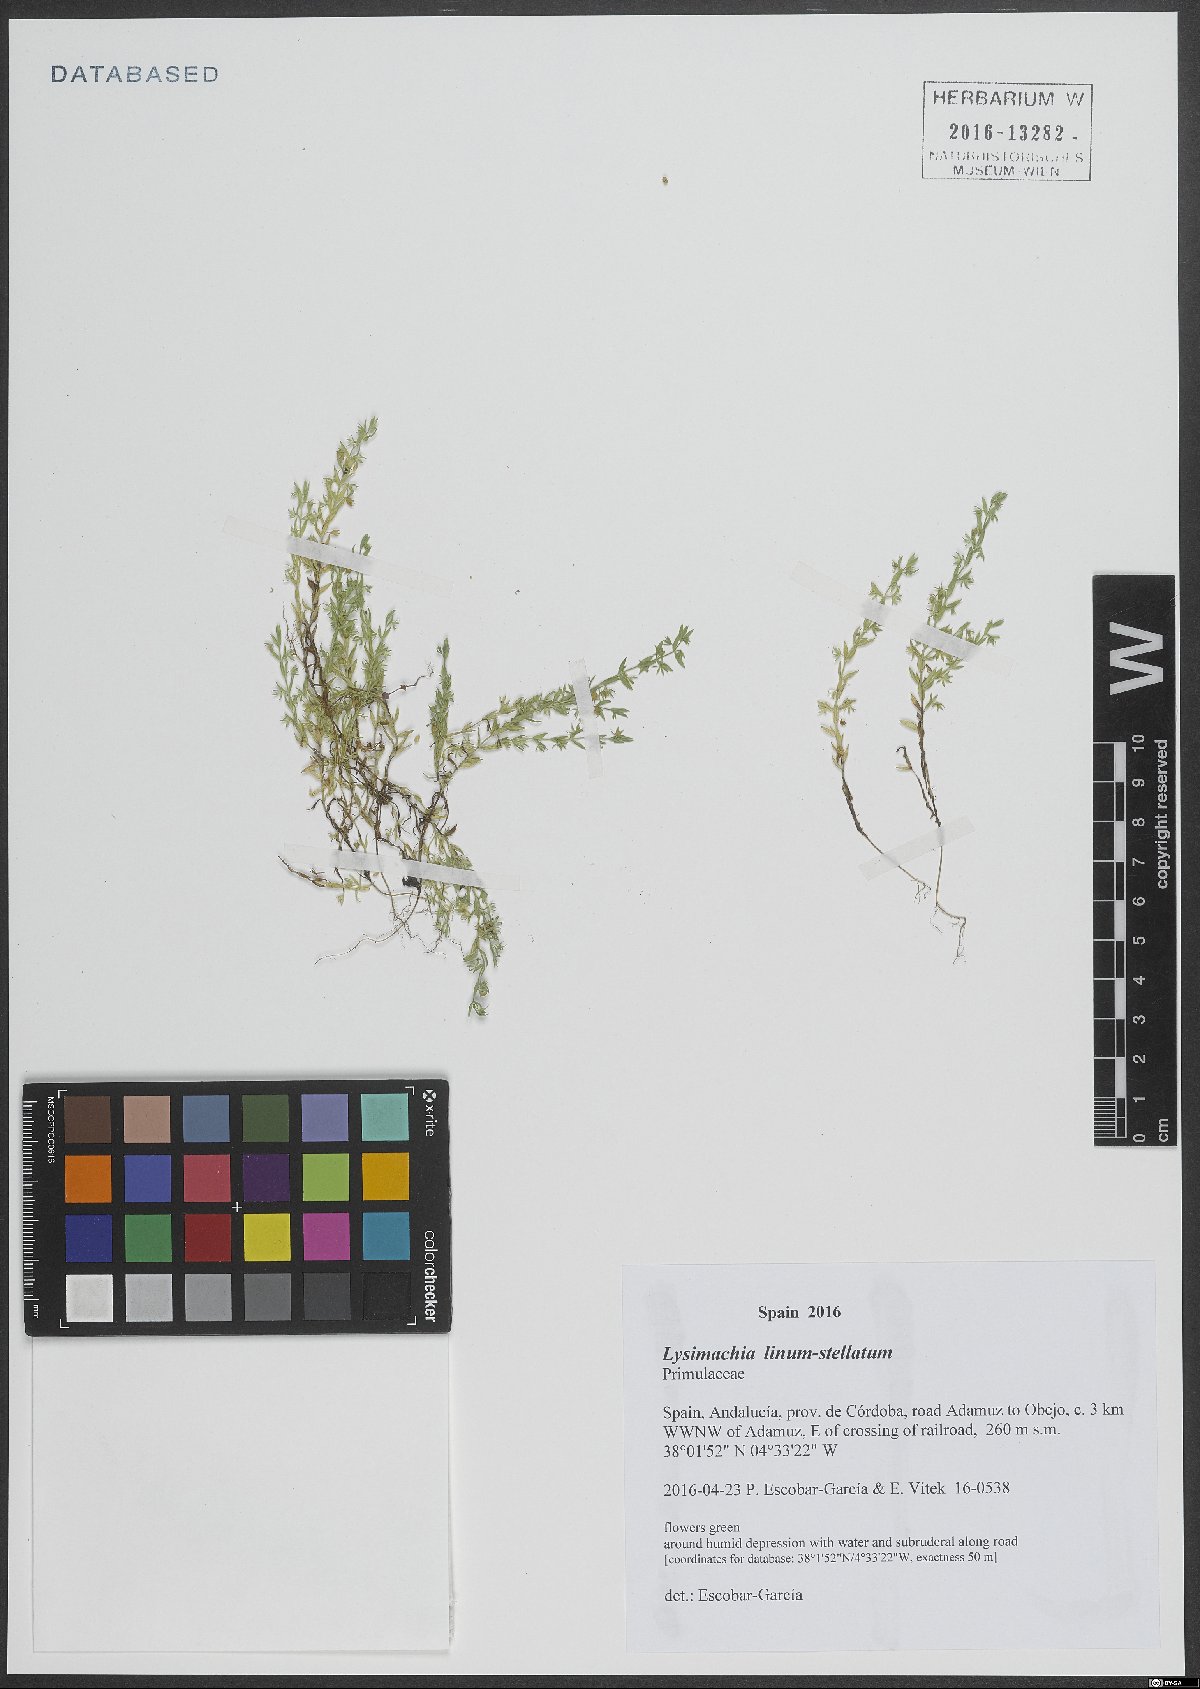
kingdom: Plantae
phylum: Tracheophyta
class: Magnoliopsida
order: Ericales
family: Primulaceae
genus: Lysimachia
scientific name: Lysimachia linum-stellatum
